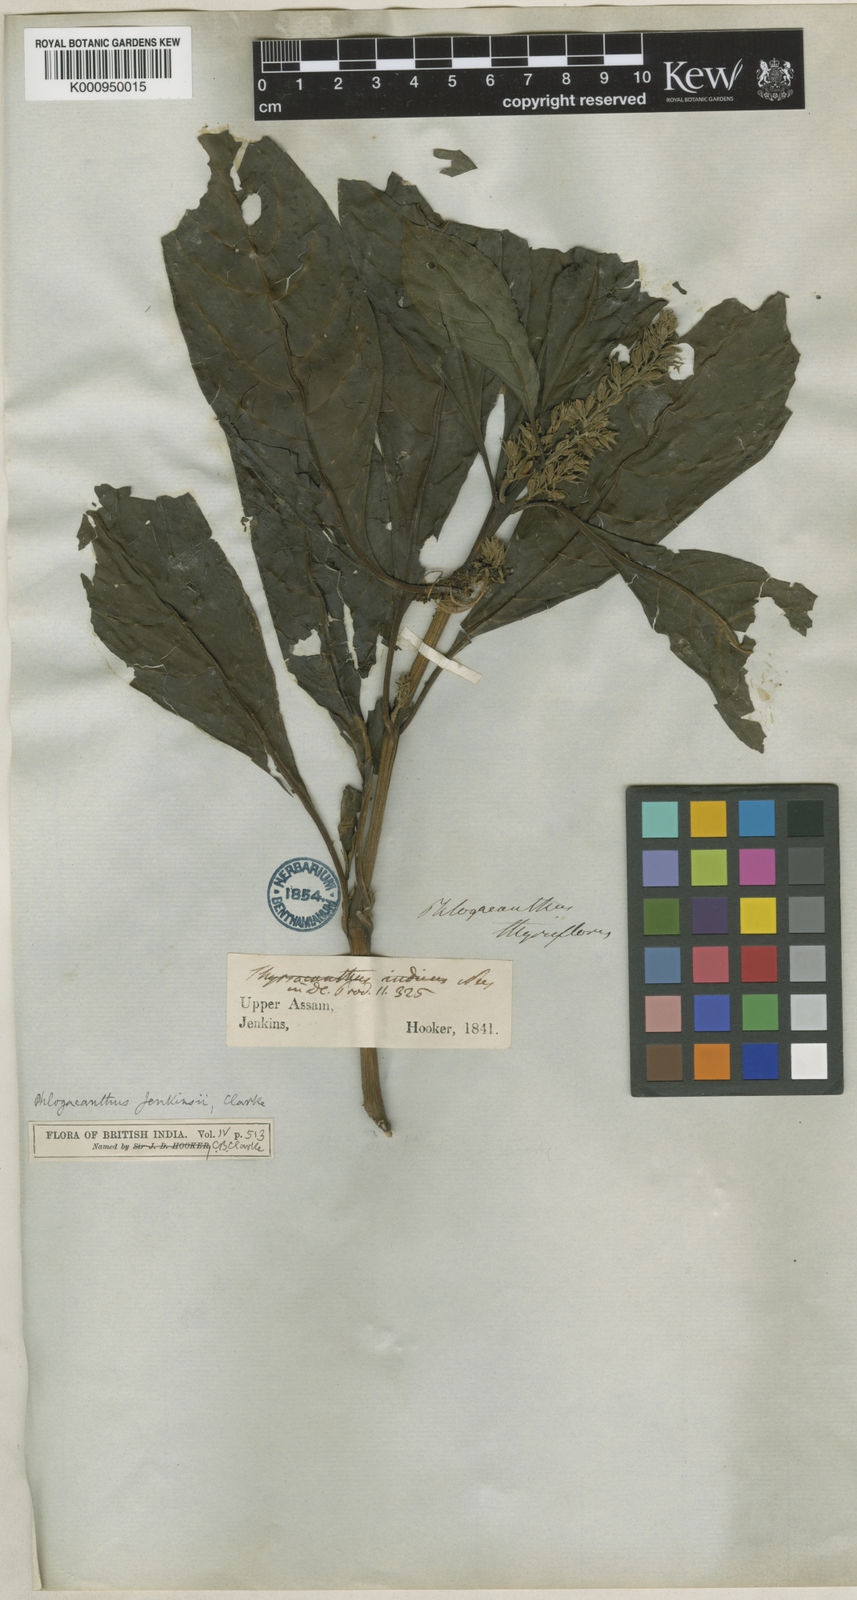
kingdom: Plantae
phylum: Tracheophyta
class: Magnoliopsida
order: Lamiales
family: Acanthaceae
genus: Phlogacanthus
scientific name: Phlogacanthus jenkinsii
